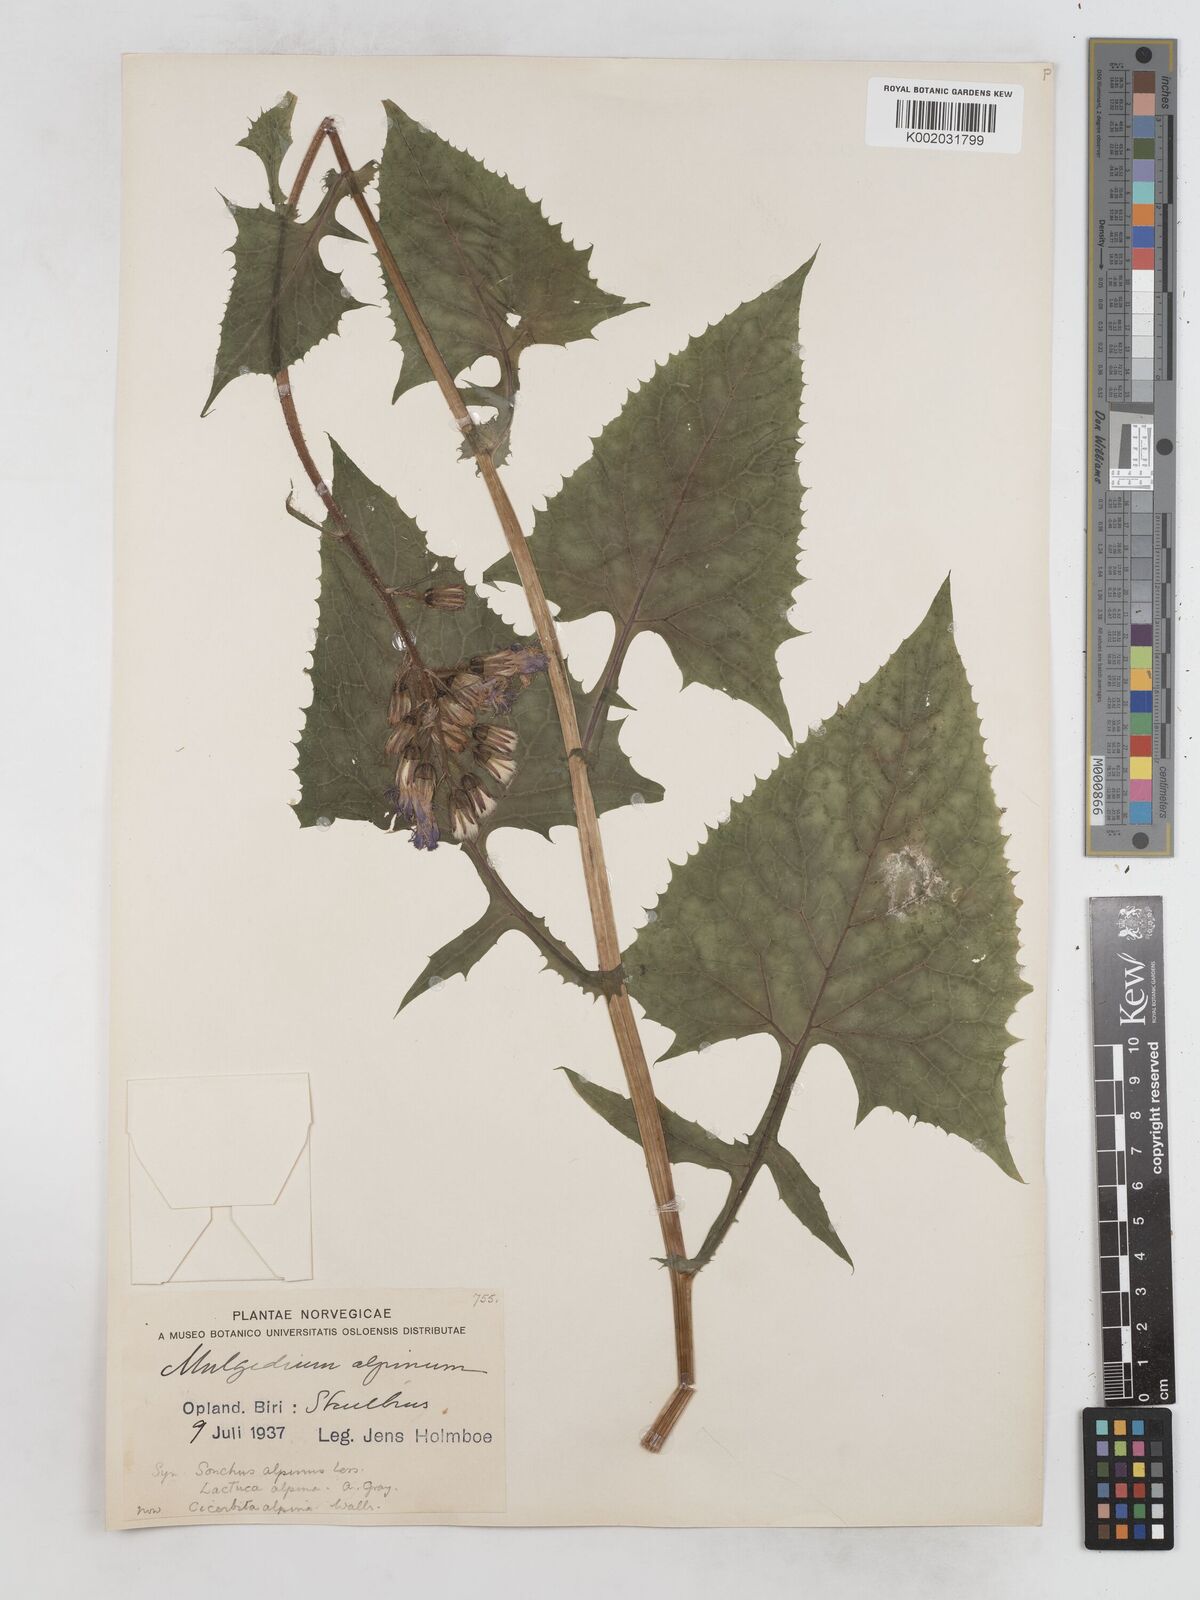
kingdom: Plantae
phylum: Tracheophyta
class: Magnoliopsida
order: Asterales
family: Asteraceae
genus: Cicerbita
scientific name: Cicerbita alpina
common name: Alpine blue-sow-thistle
